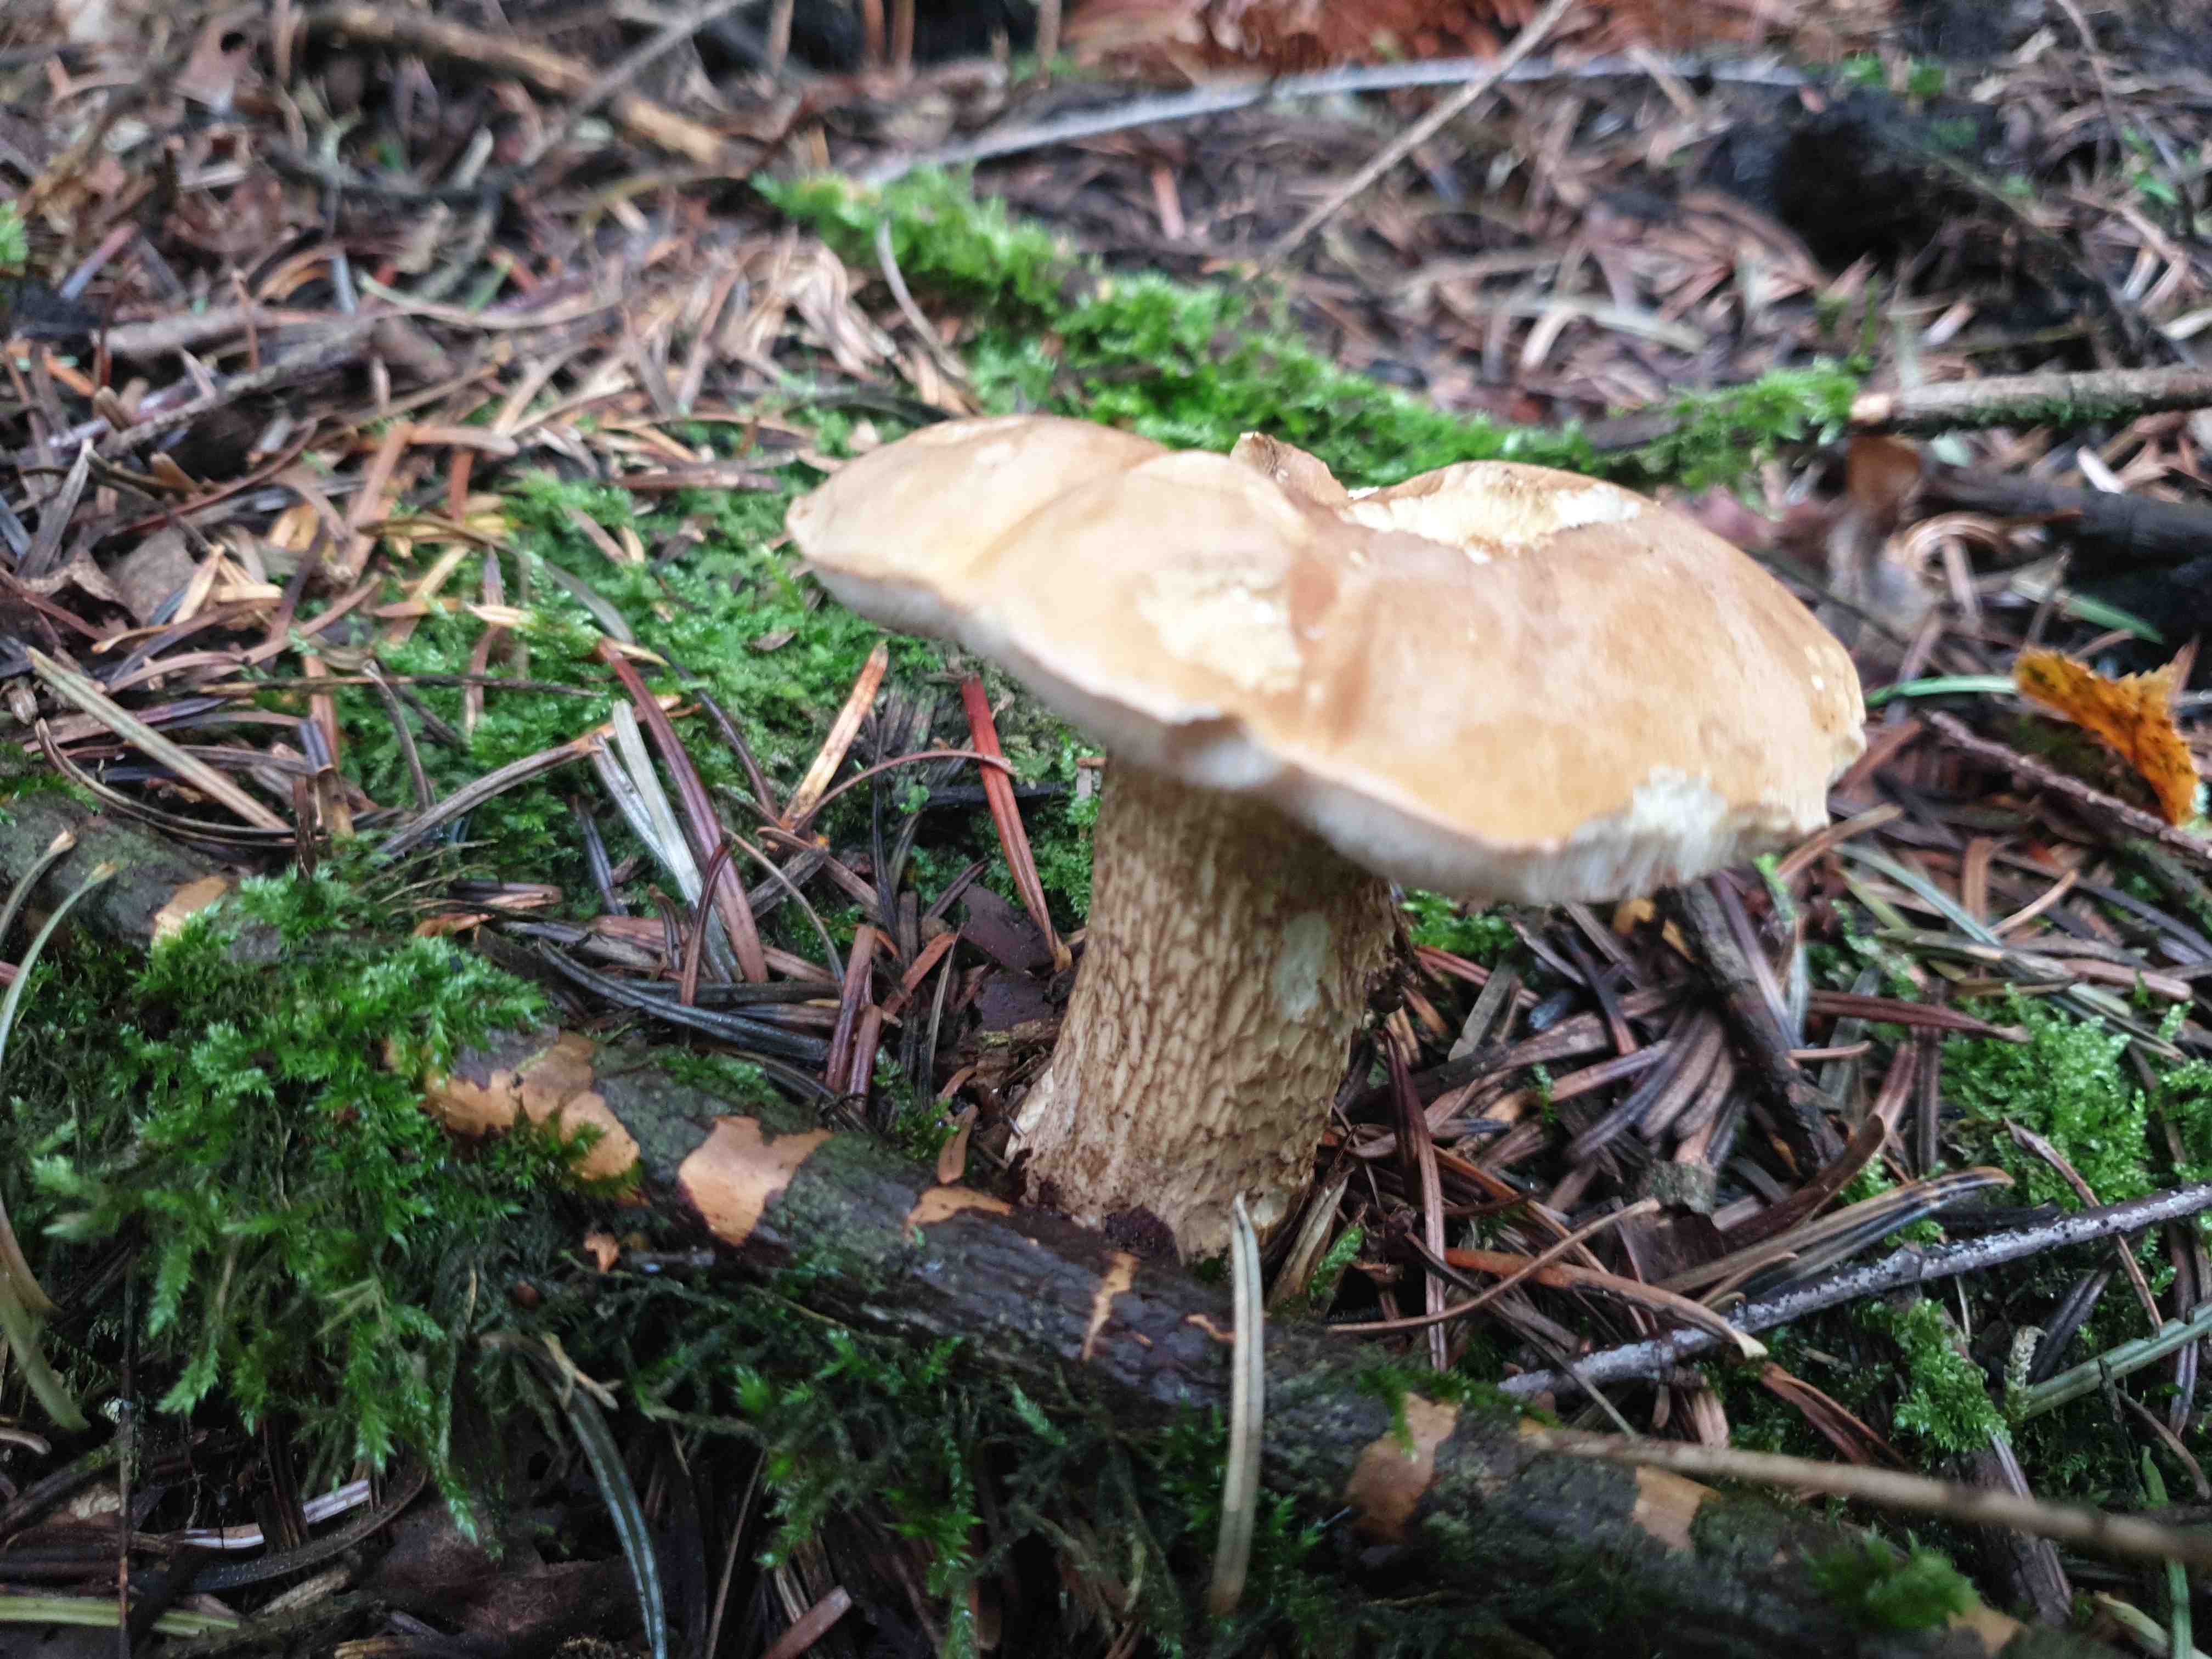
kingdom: Fungi
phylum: Basidiomycota
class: Agaricomycetes
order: Boletales
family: Boletaceae
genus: Tylopilus
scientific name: Tylopilus felleus
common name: galderørhat
